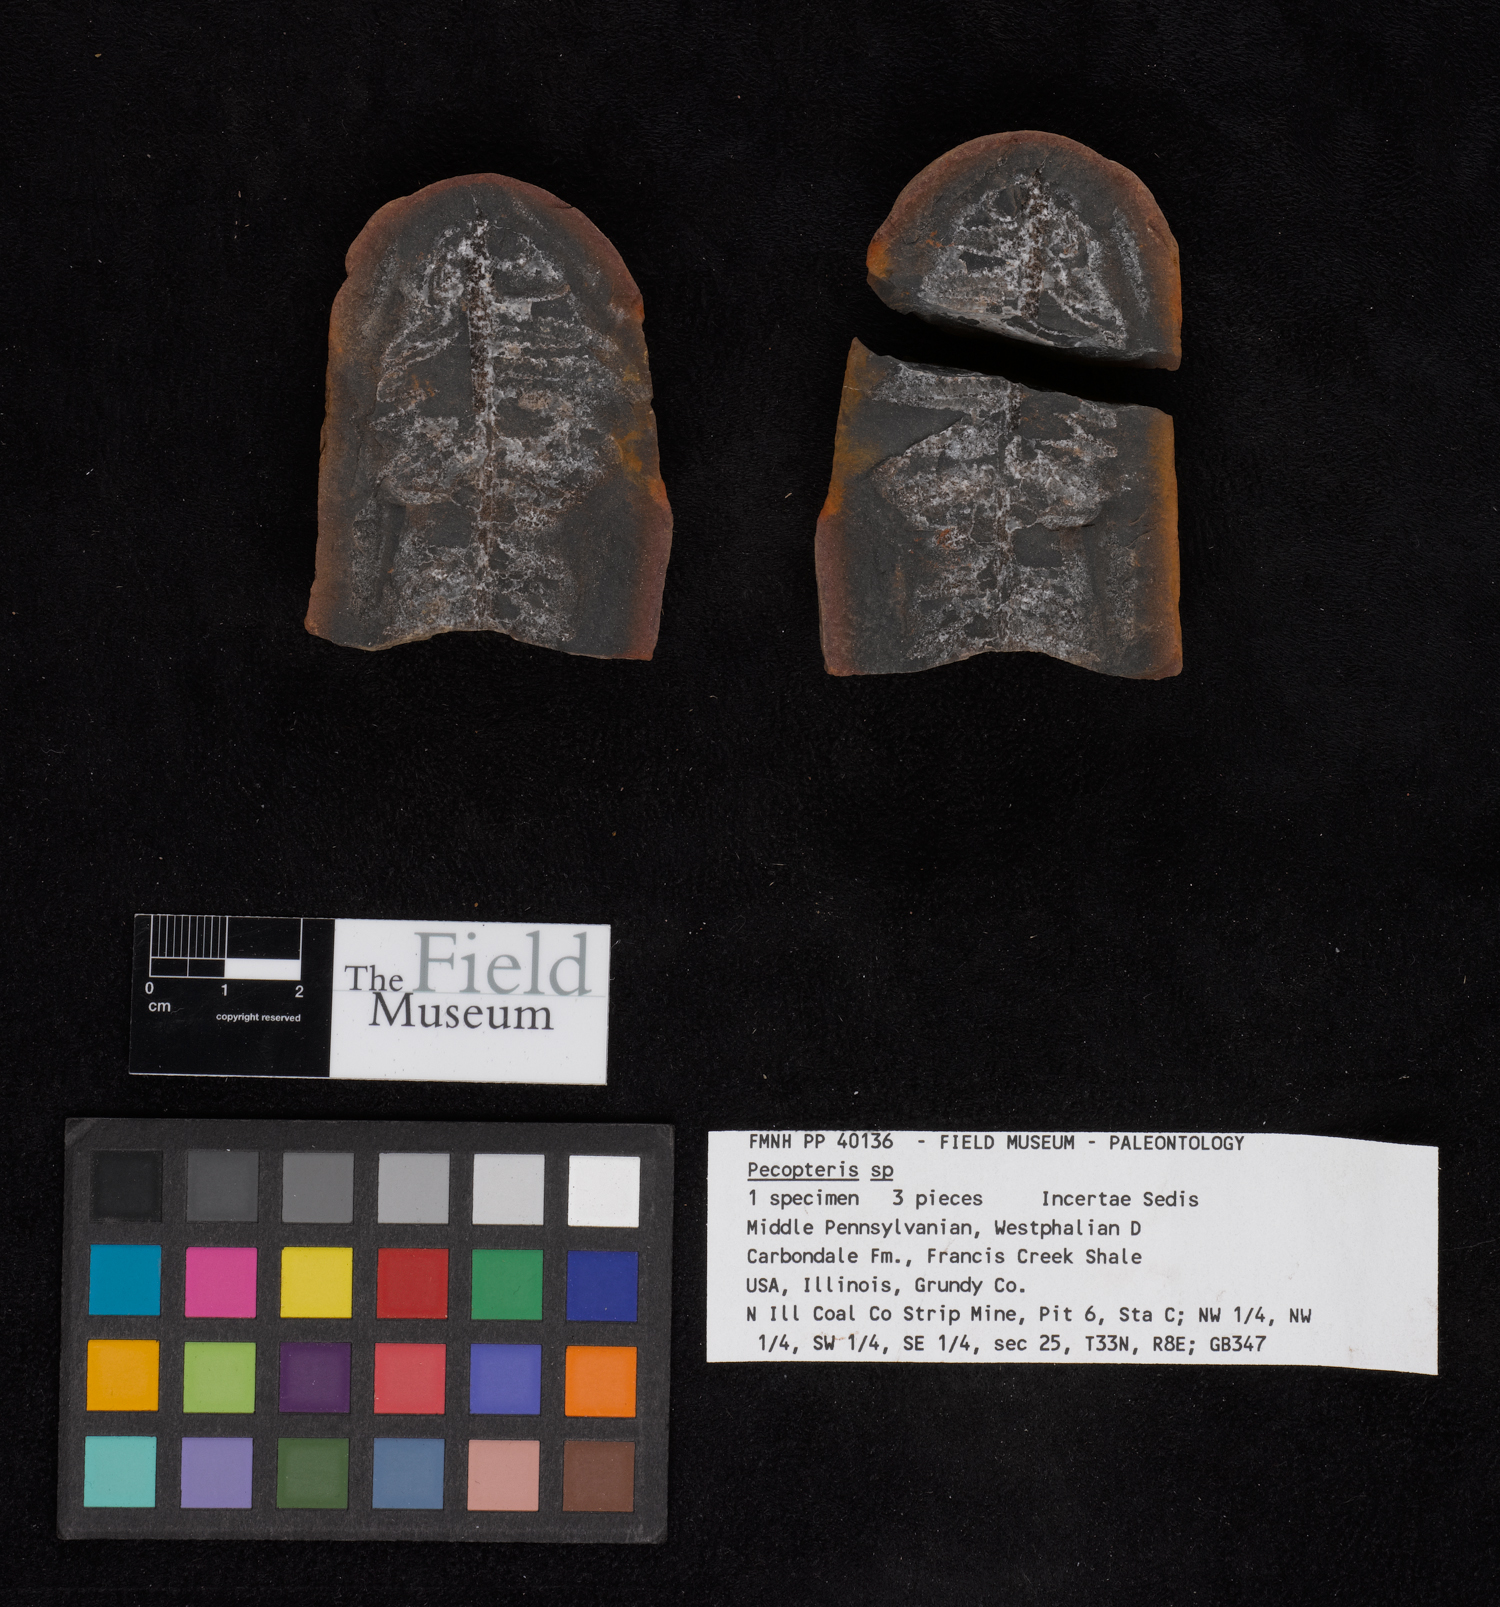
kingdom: Plantae
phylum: Tracheophyta
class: Polypodiopsida
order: Marattiales
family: Asterothecaceae
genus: Pecopteris
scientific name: Pecopteris
